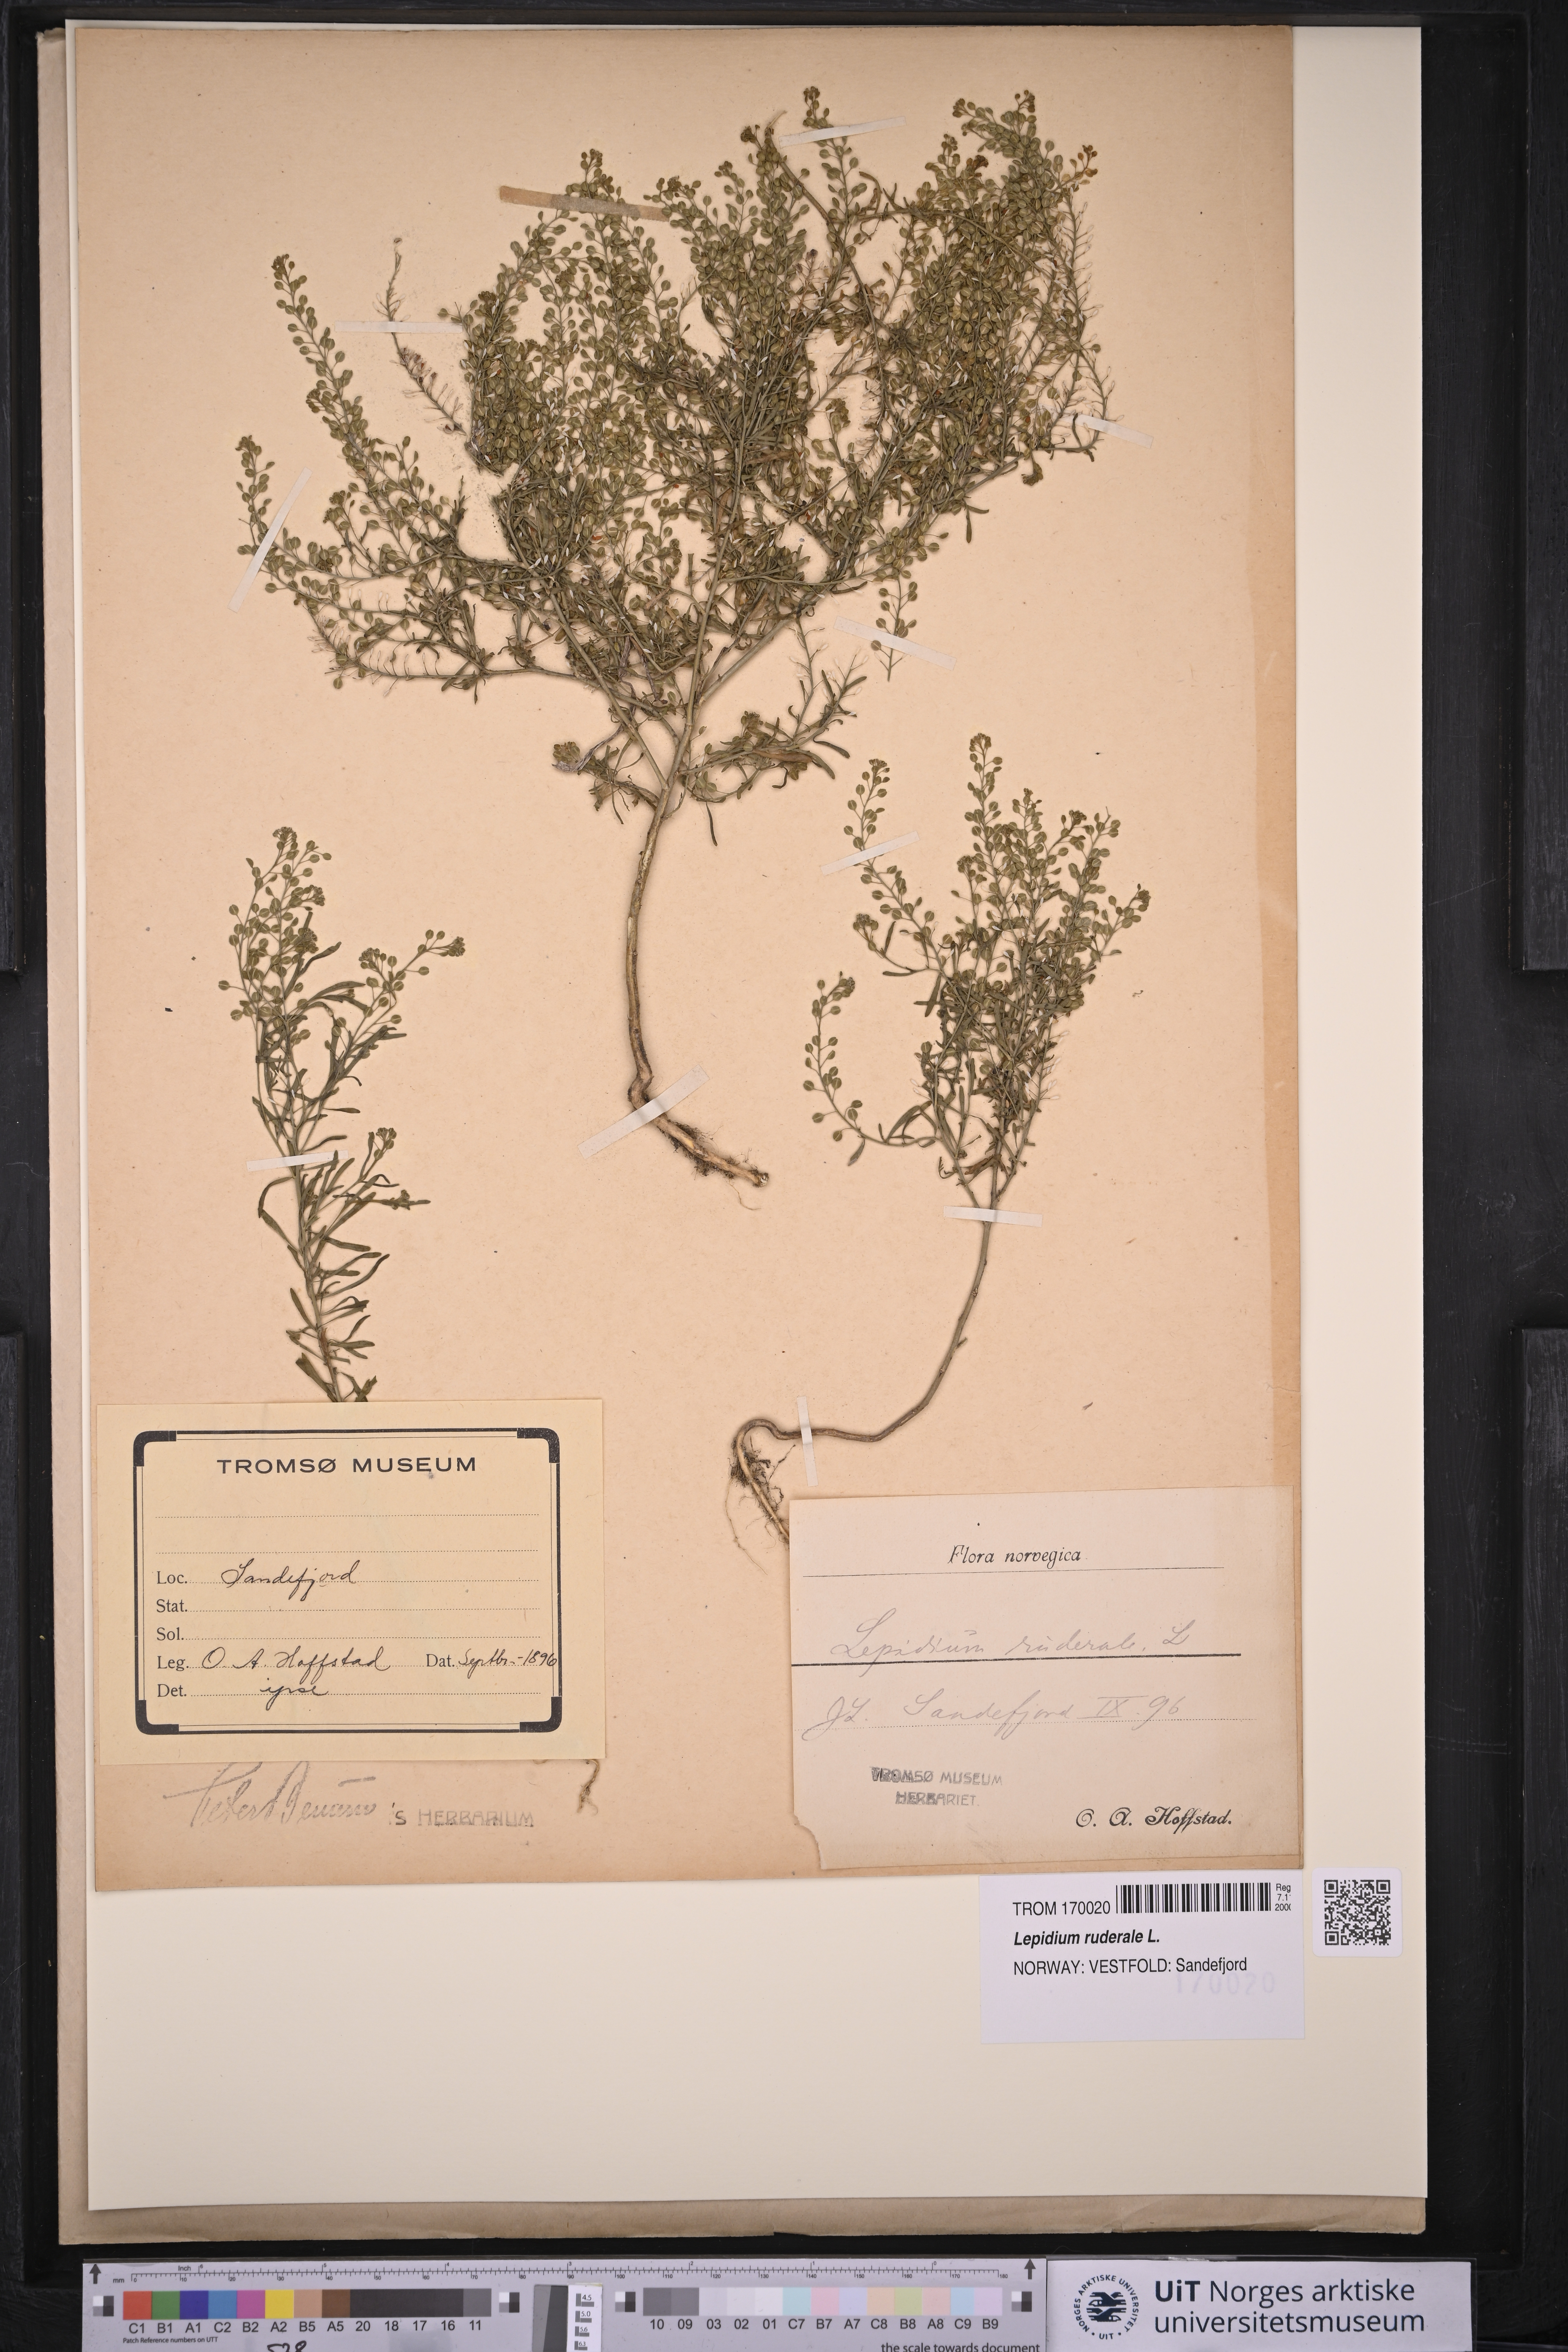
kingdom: Plantae
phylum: Tracheophyta
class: Magnoliopsida
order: Brassicales
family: Brassicaceae
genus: Lepidium
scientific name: Lepidium ruderale
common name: Narrow-leaved pepperwort
